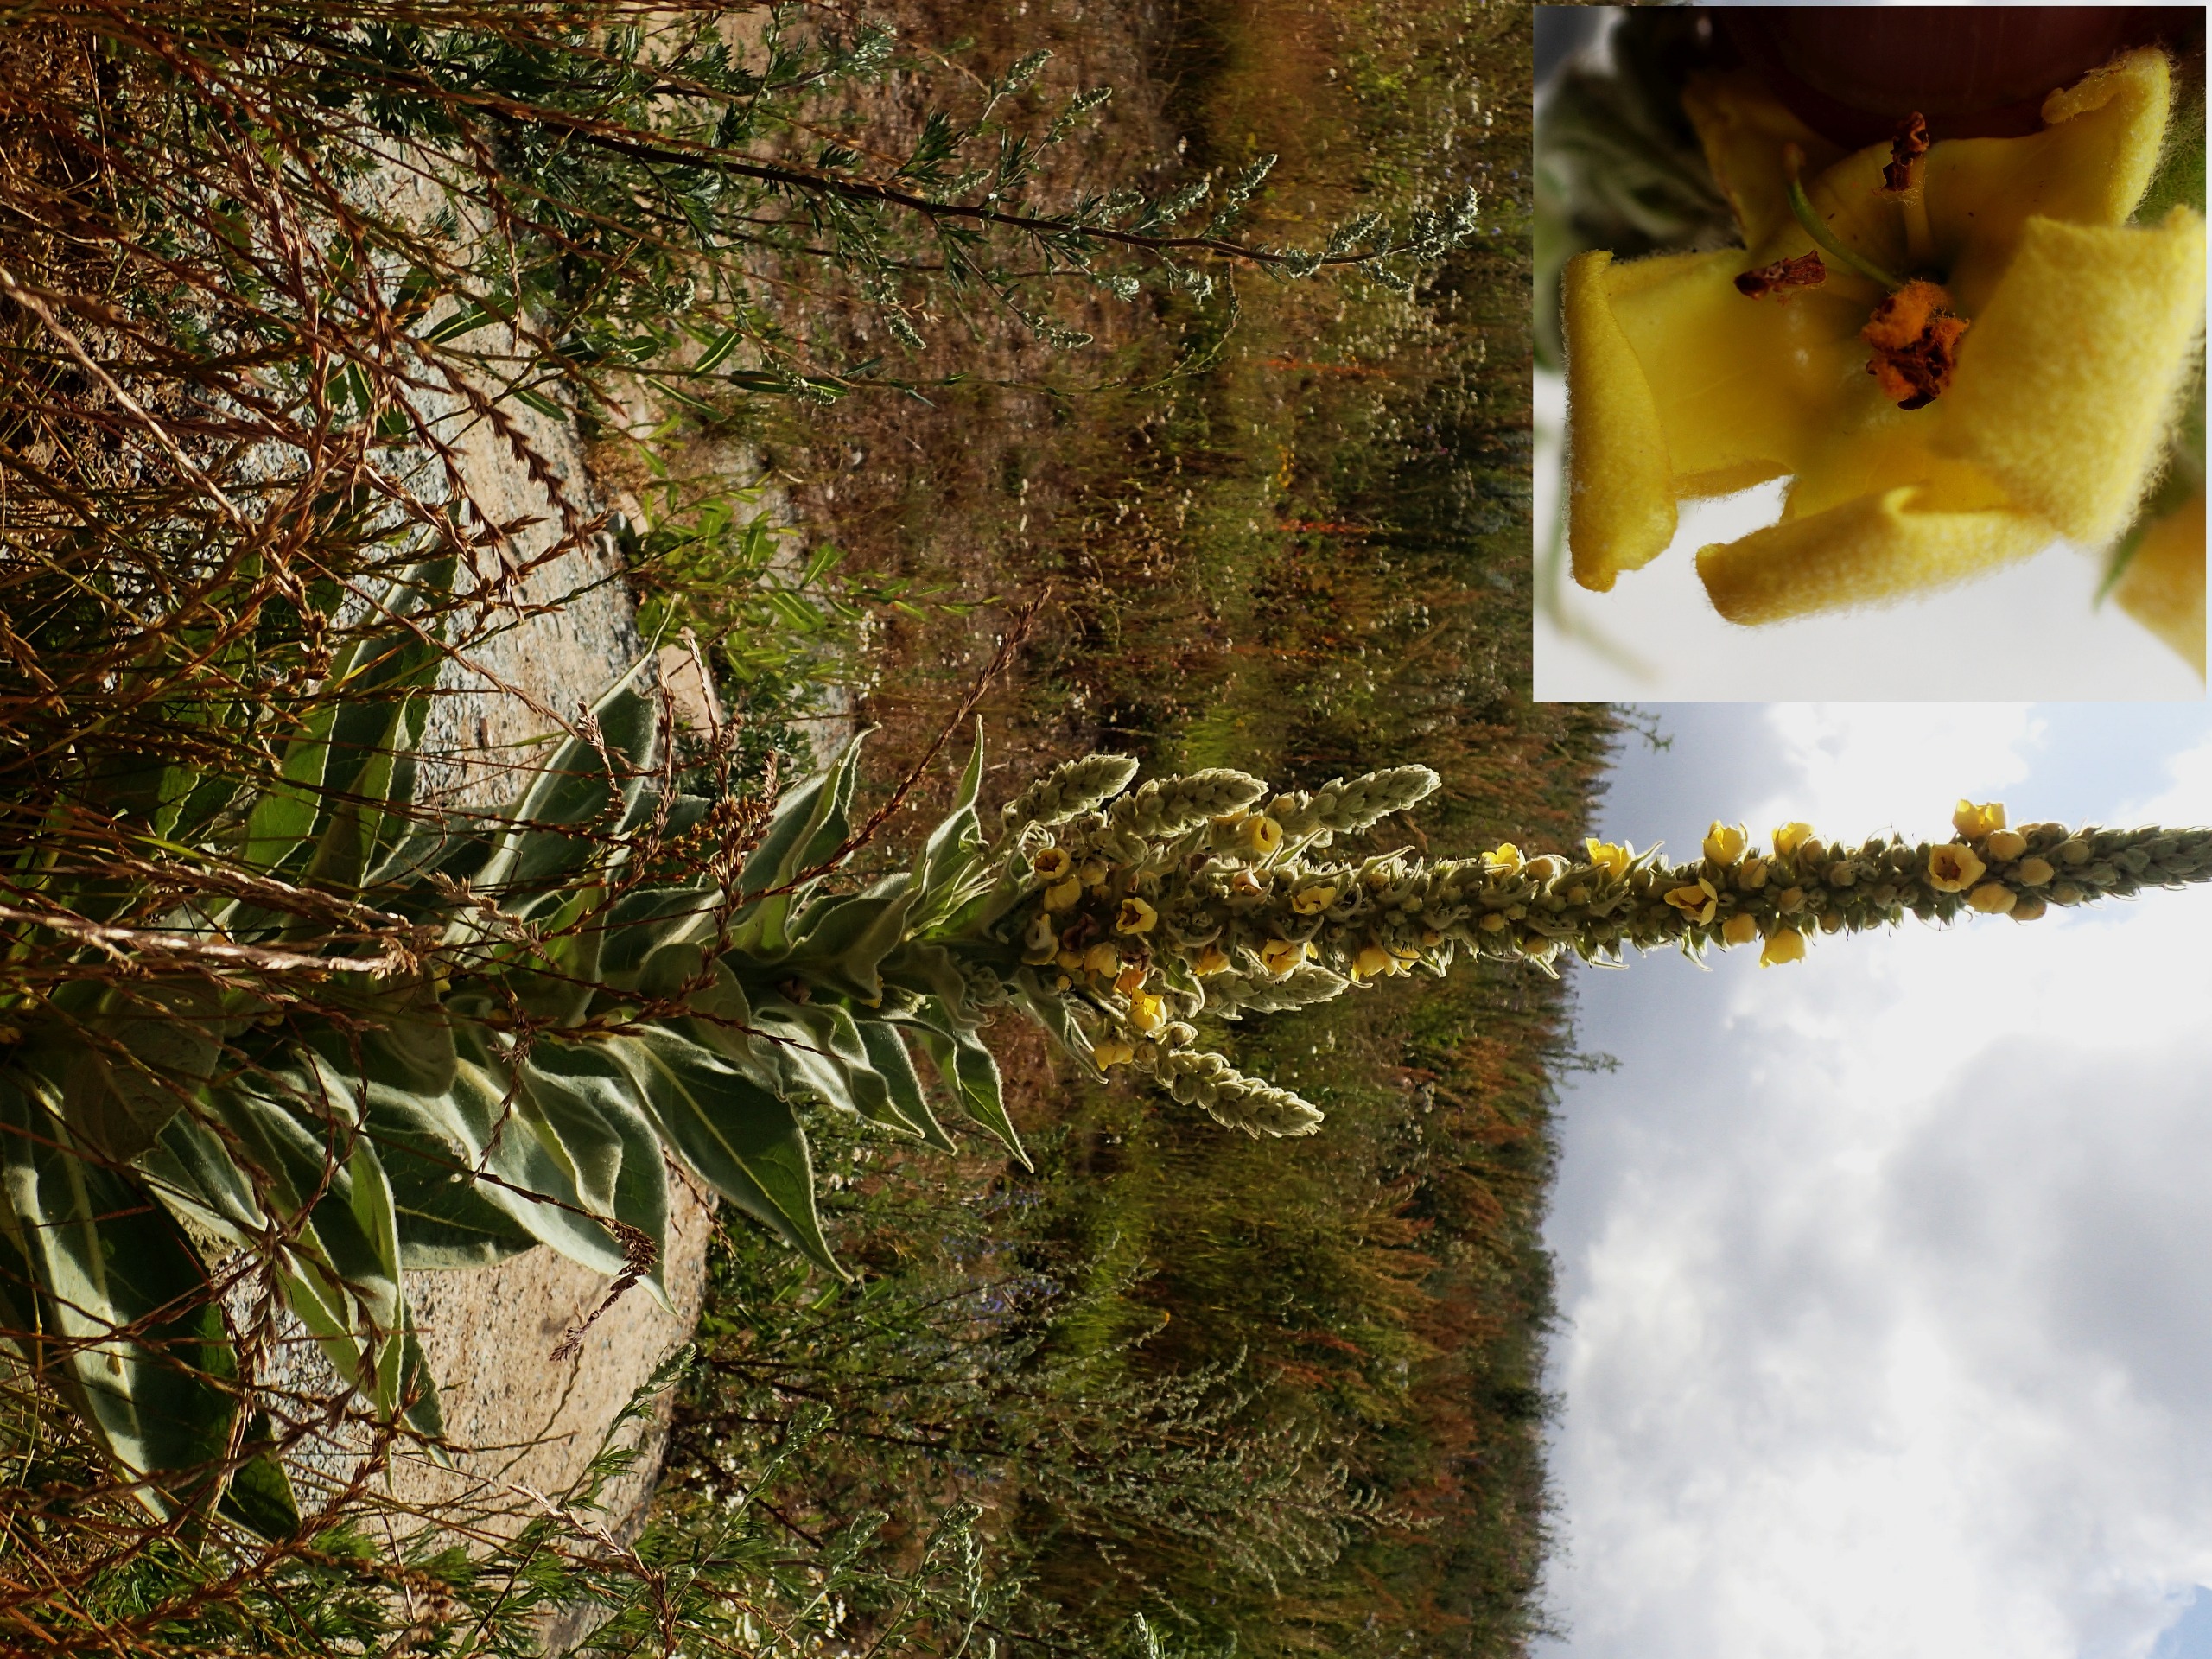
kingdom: Plantae
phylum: Tracheophyta
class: Magnoliopsida
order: Lamiales
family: Scrophulariaceae
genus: Verbascum
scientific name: Verbascum densiflorum
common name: Uldbladet kongelys
